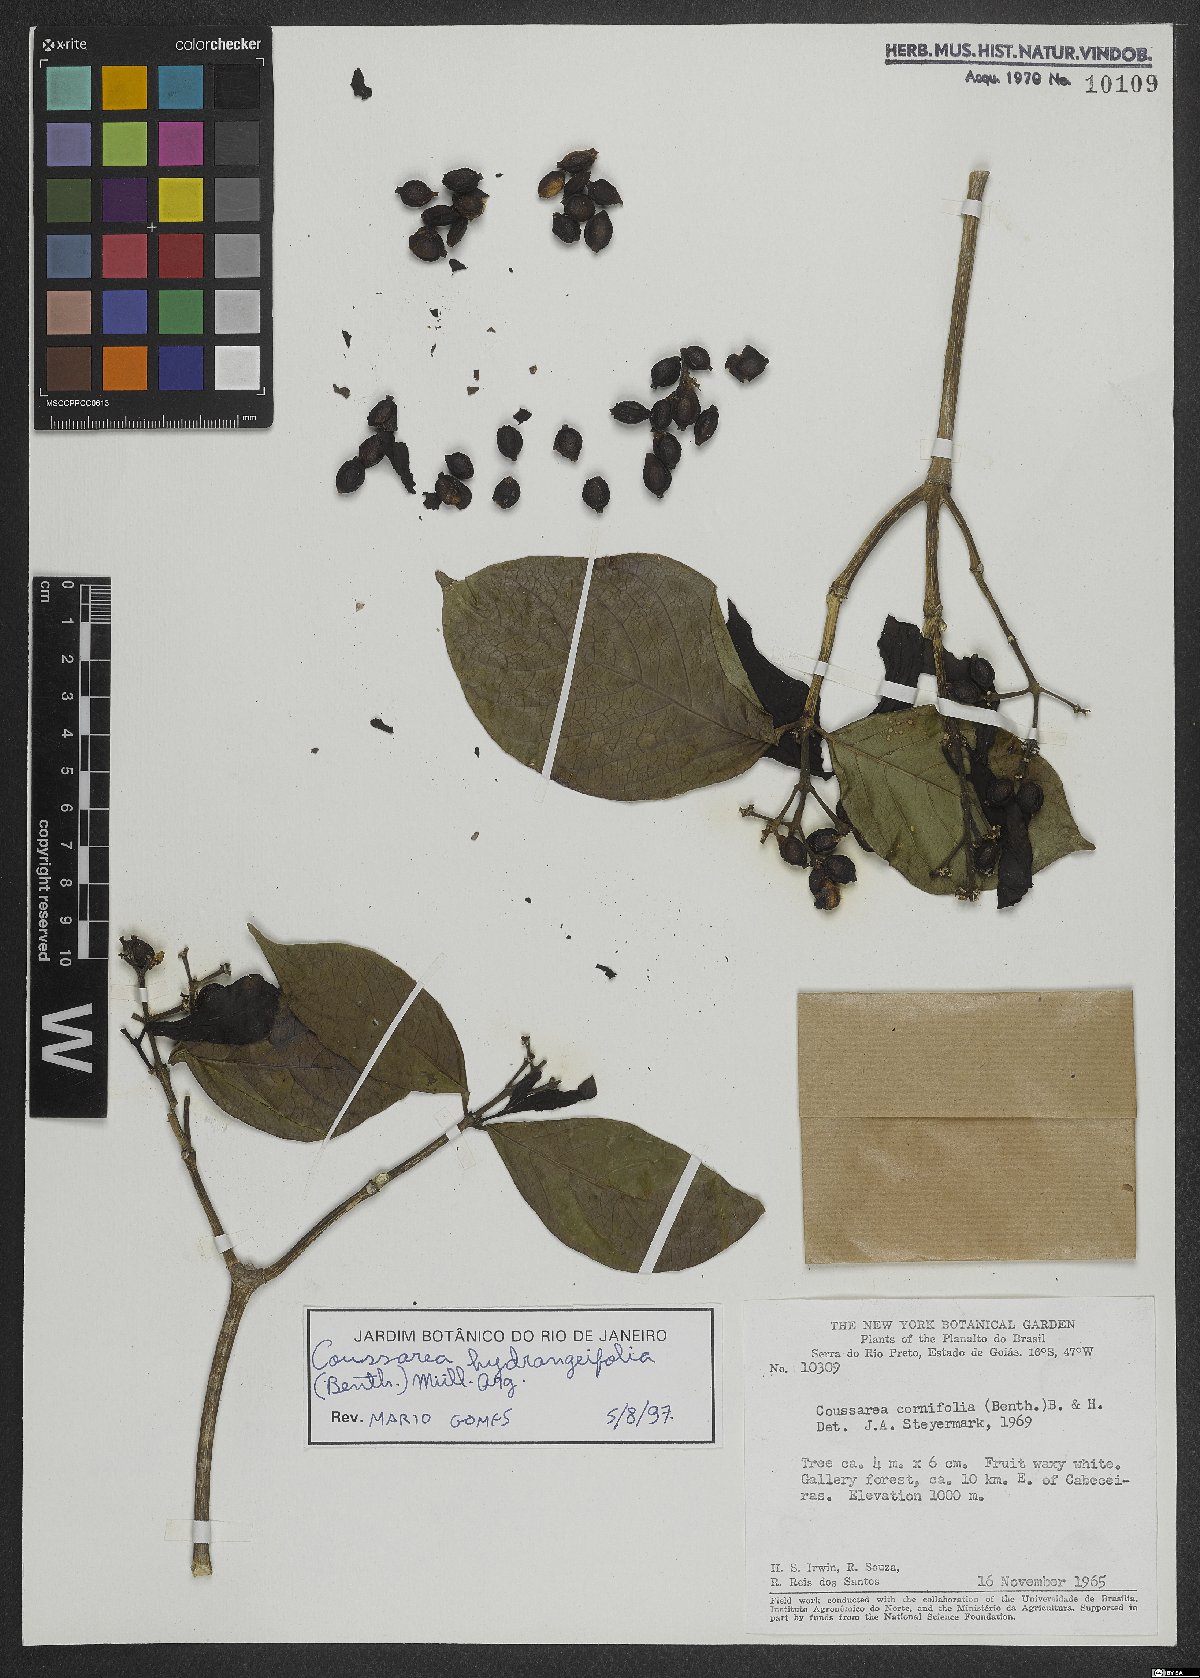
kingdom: Plantae
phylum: Tracheophyta
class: Magnoliopsida
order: Gentianales
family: Rubiaceae
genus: Coussarea
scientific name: Coussarea hydrangeifolia
